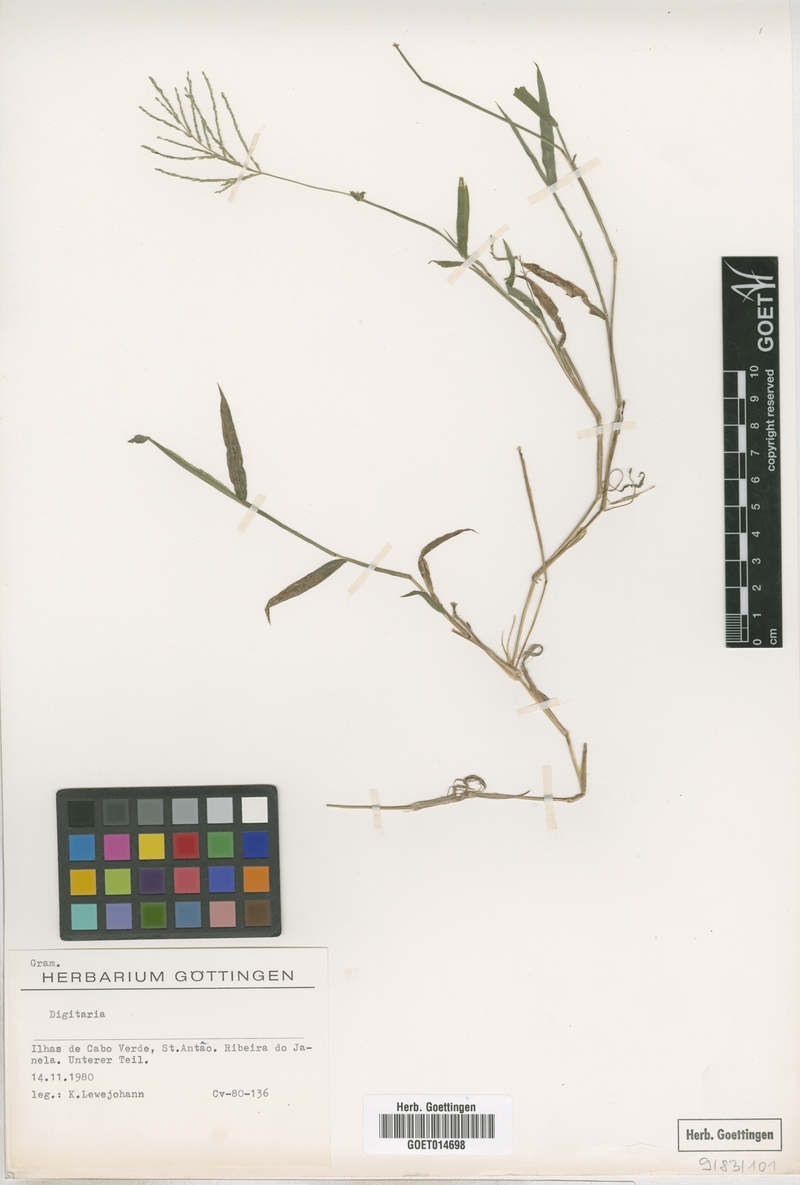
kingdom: Plantae
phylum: Tracheophyta
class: Liliopsida
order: Poales
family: Poaceae
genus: Digitaria
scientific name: Digitaria
